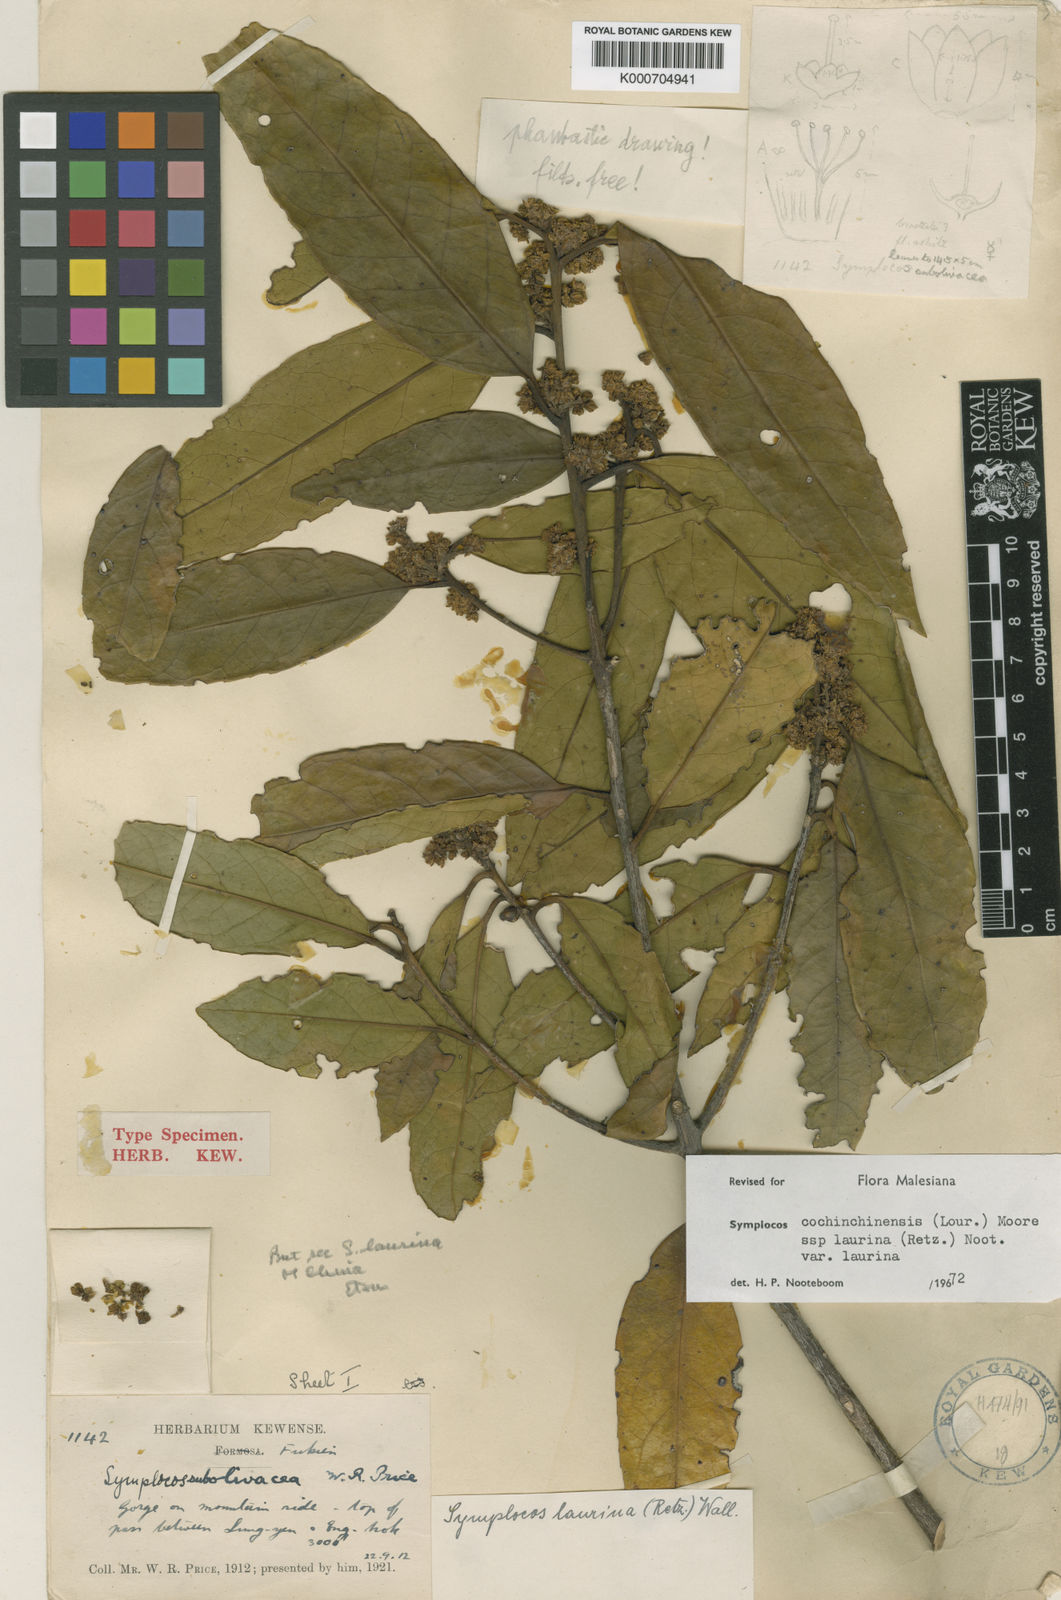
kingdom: Plantae
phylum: Tracheophyta
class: Magnoliopsida
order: Ericales
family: Symplocaceae
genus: Symplocos
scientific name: Symplocos
